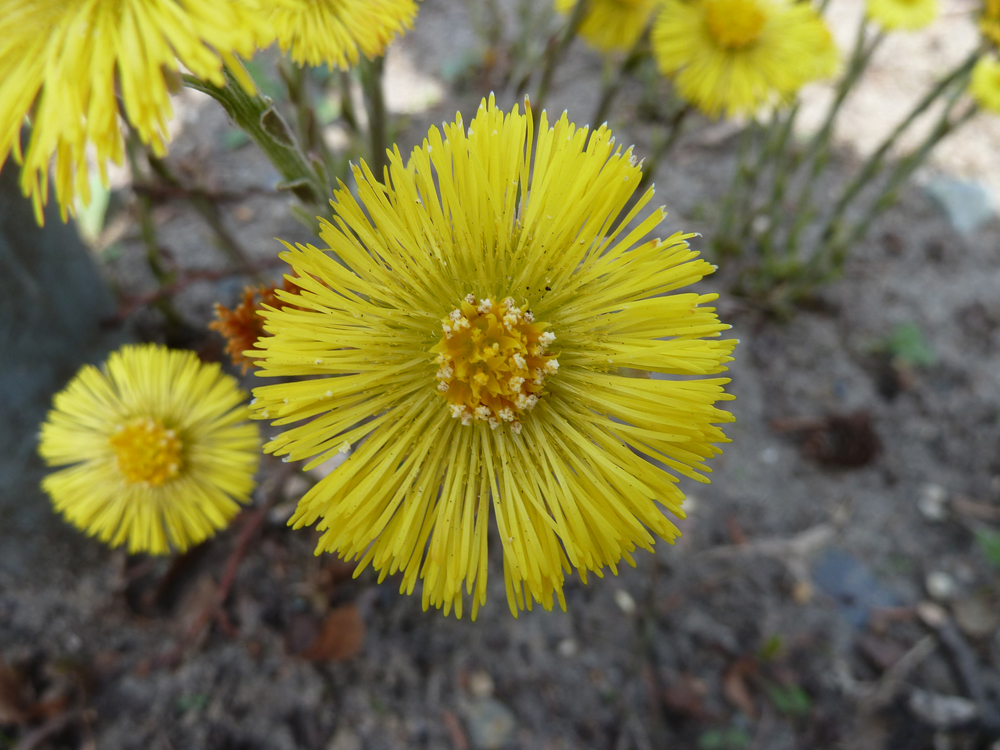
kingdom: Plantae
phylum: Tracheophyta
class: Magnoliopsida
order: Asterales
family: Asteraceae
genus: Tussilago
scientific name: Tussilago farfara
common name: Coltsfoot
